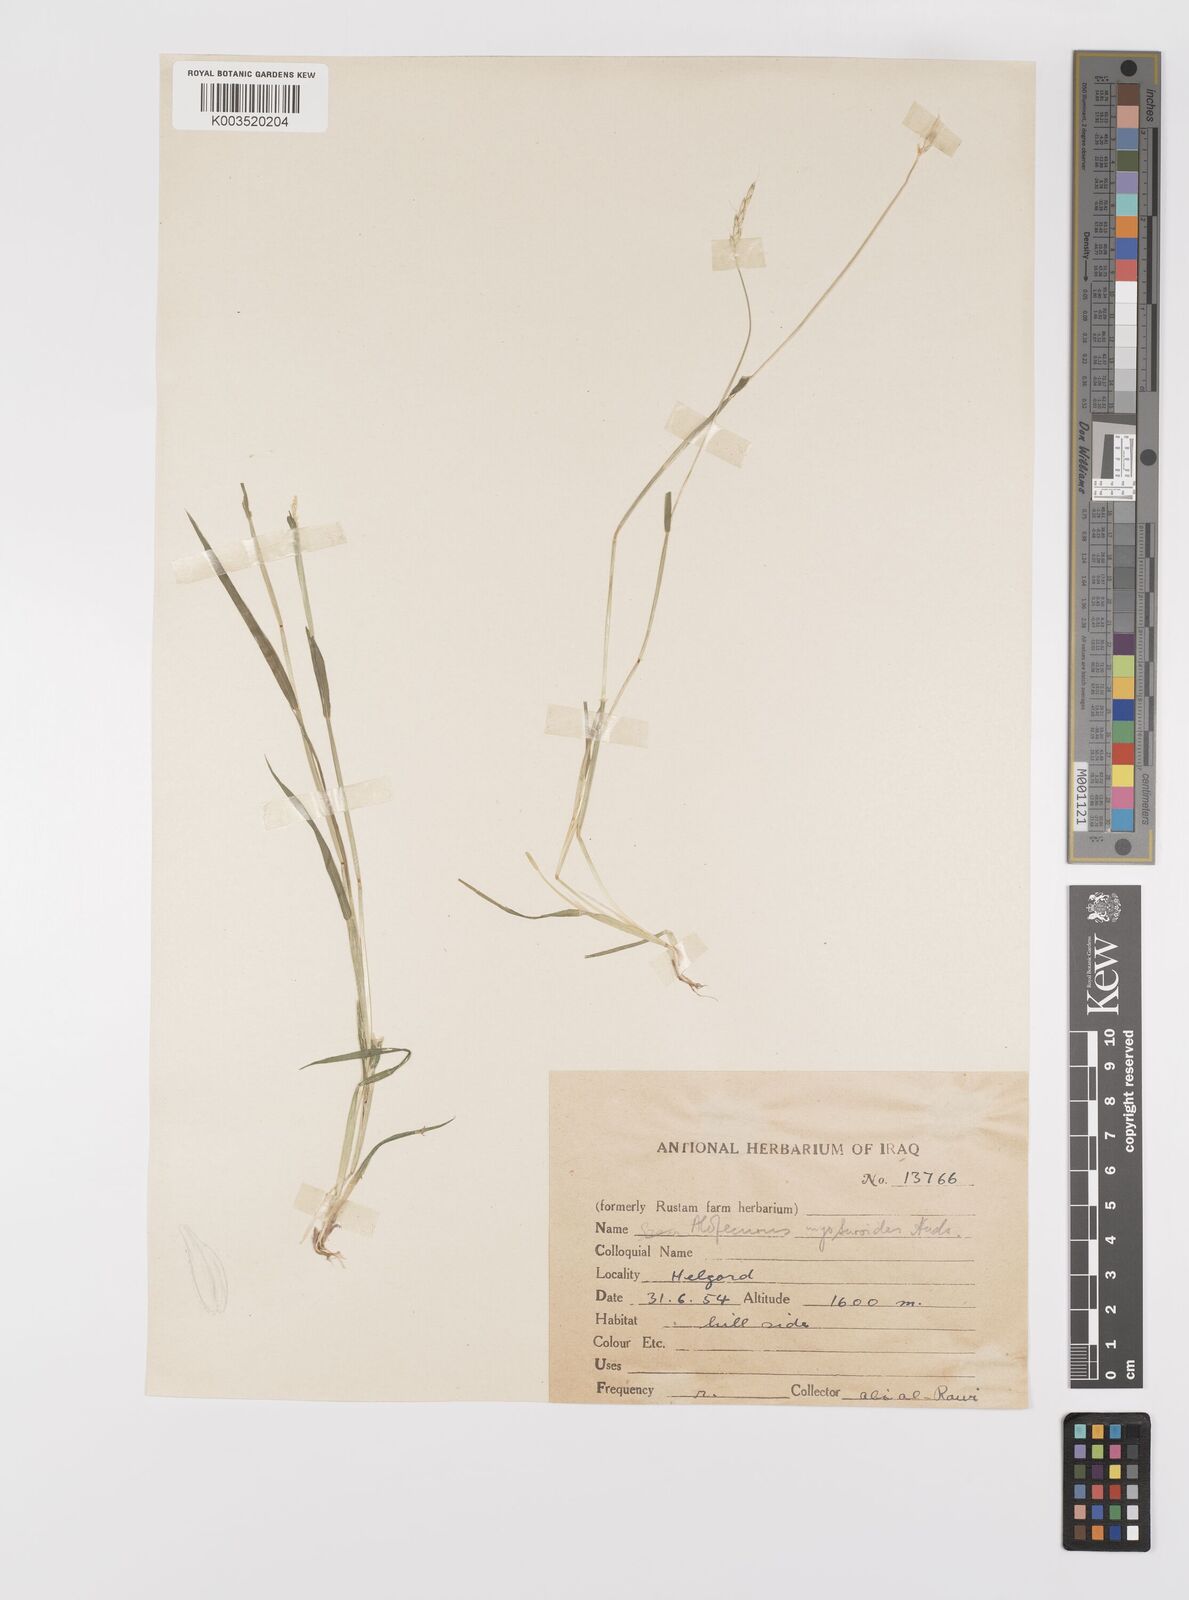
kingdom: Plantae
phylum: Tracheophyta
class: Liliopsida
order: Poales
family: Poaceae
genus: Alopecurus
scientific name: Alopecurus myosuroides
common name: Black-grass
